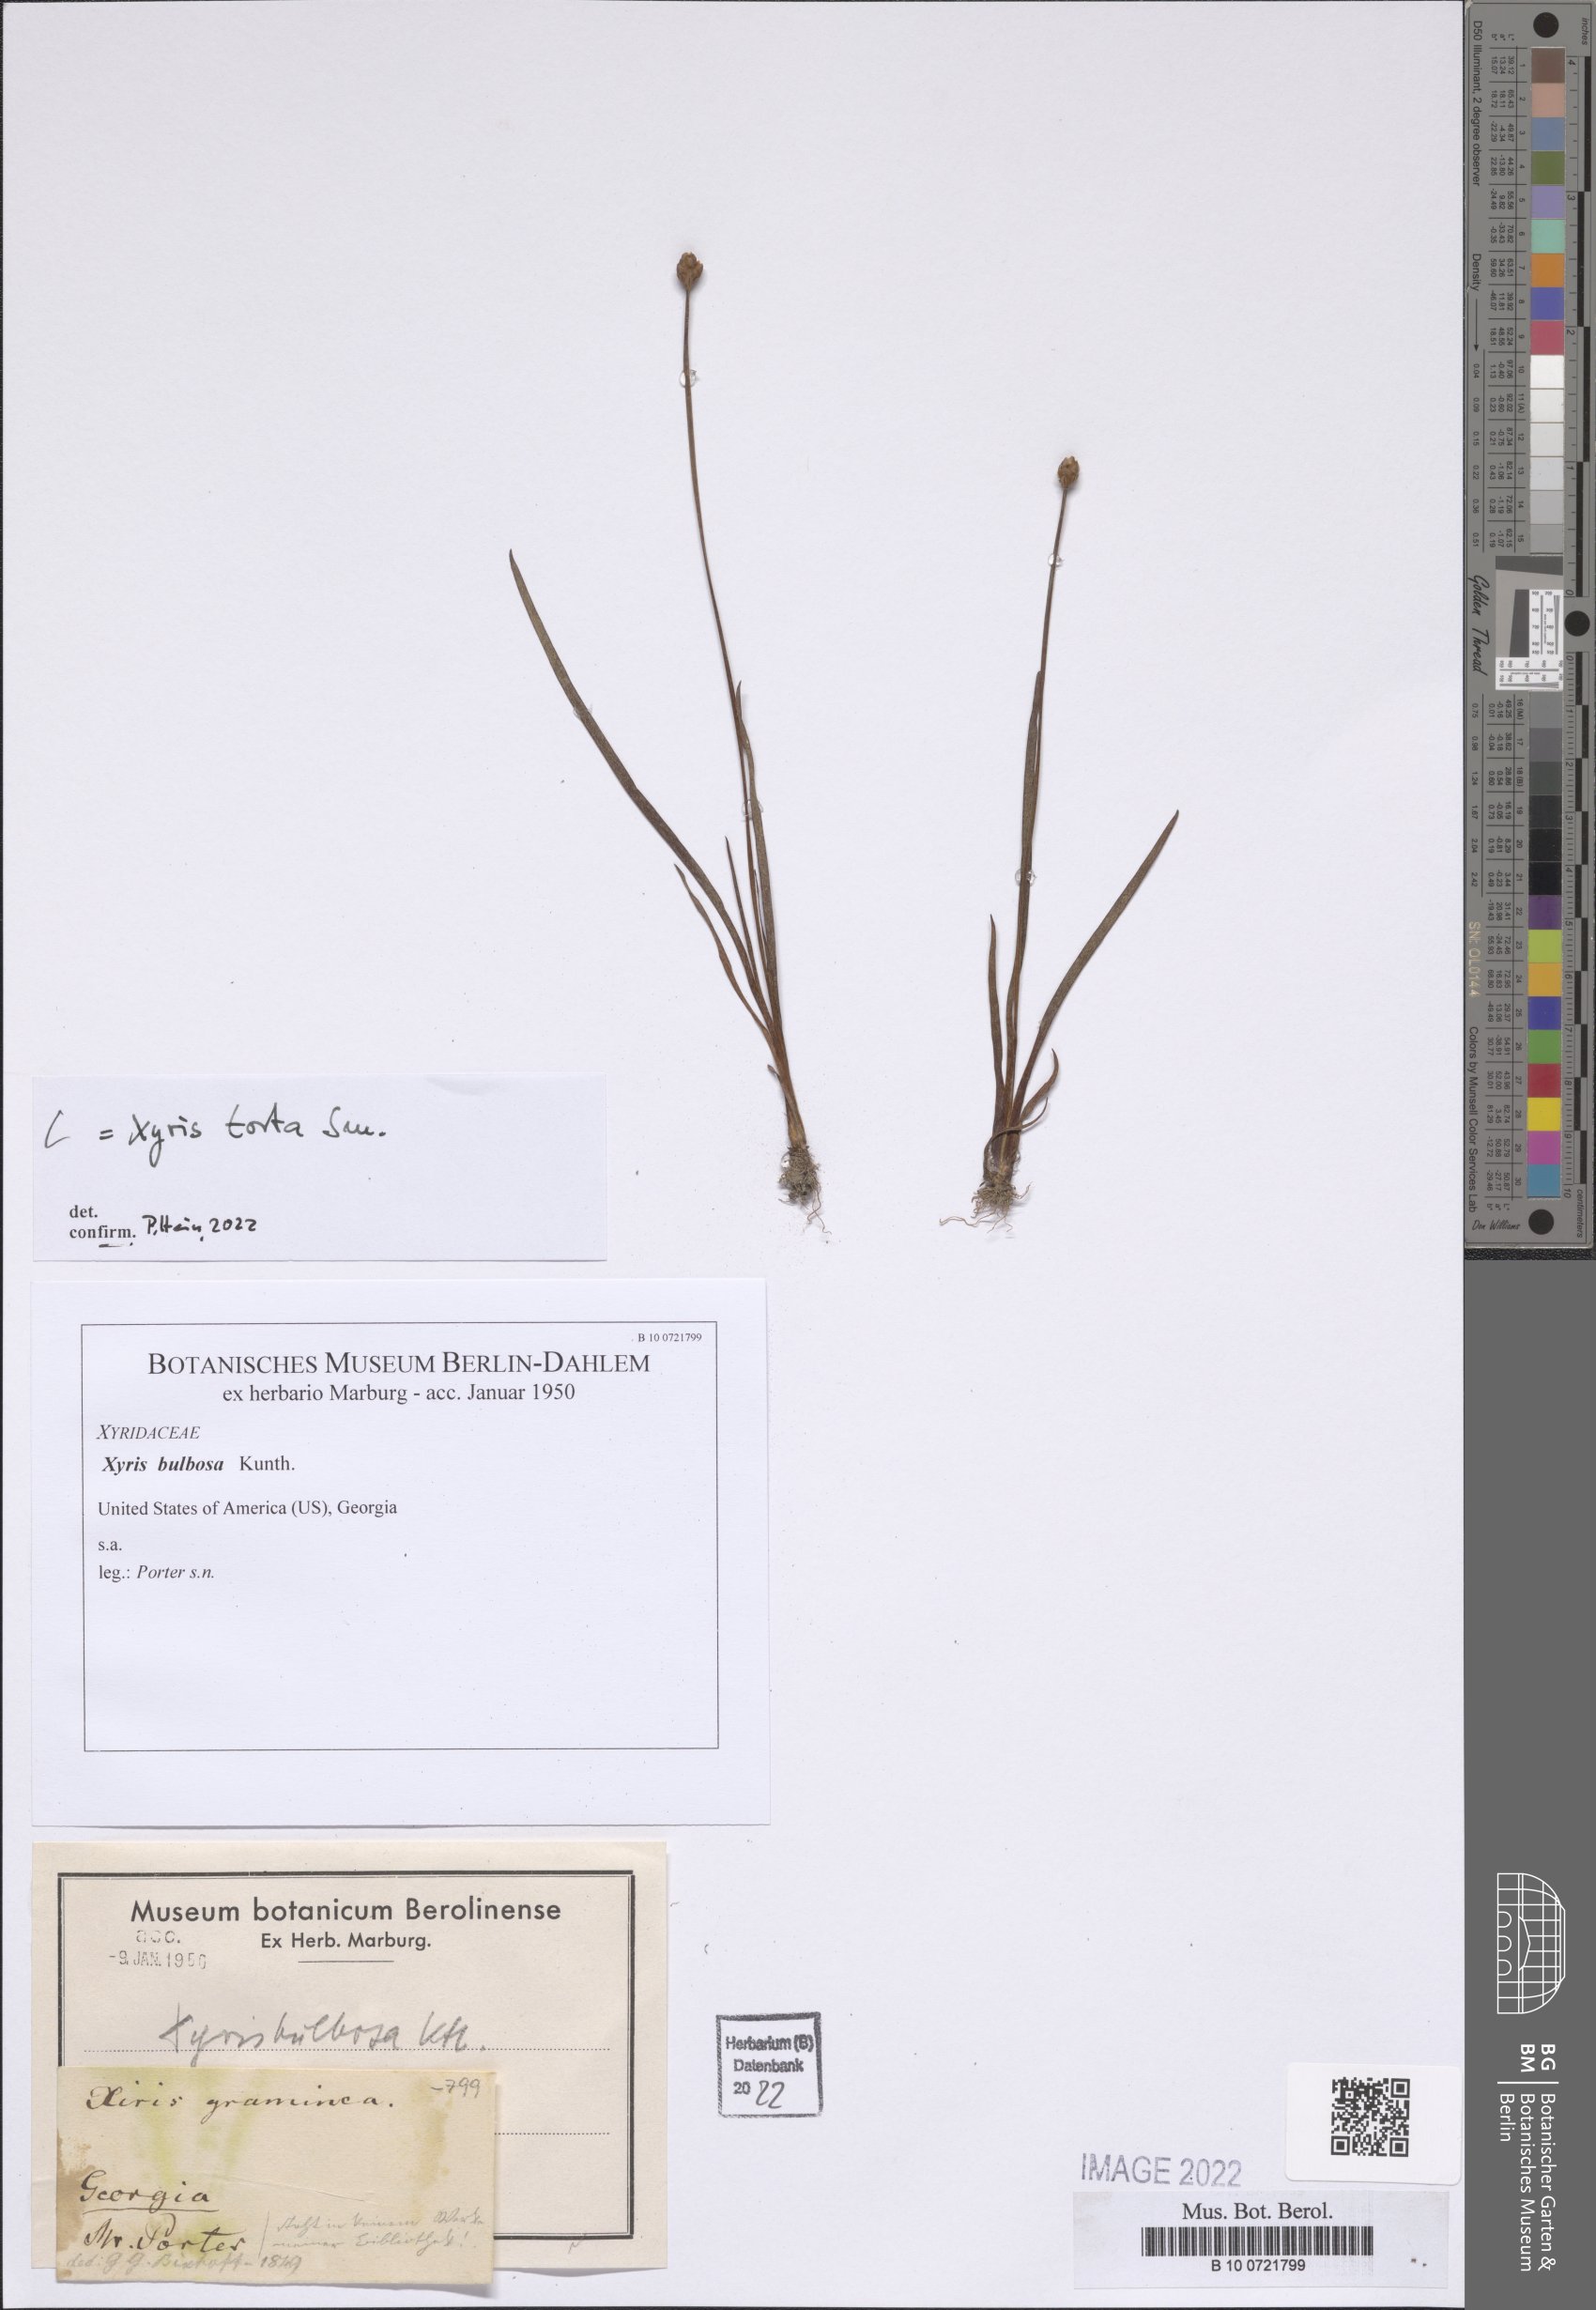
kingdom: Plantae
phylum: Tracheophyta
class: Liliopsida
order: Poales
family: Xyridaceae
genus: Xyris
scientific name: Xyris torta
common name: Common yelloweyed grass
